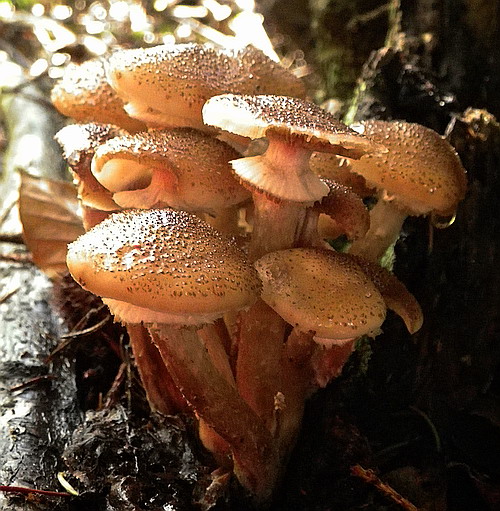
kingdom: Fungi
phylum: Basidiomycota
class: Agaricomycetes
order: Agaricales
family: Physalacriaceae
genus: Armillaria
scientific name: Armillaria ostoyae
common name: mørk honningsvamp
